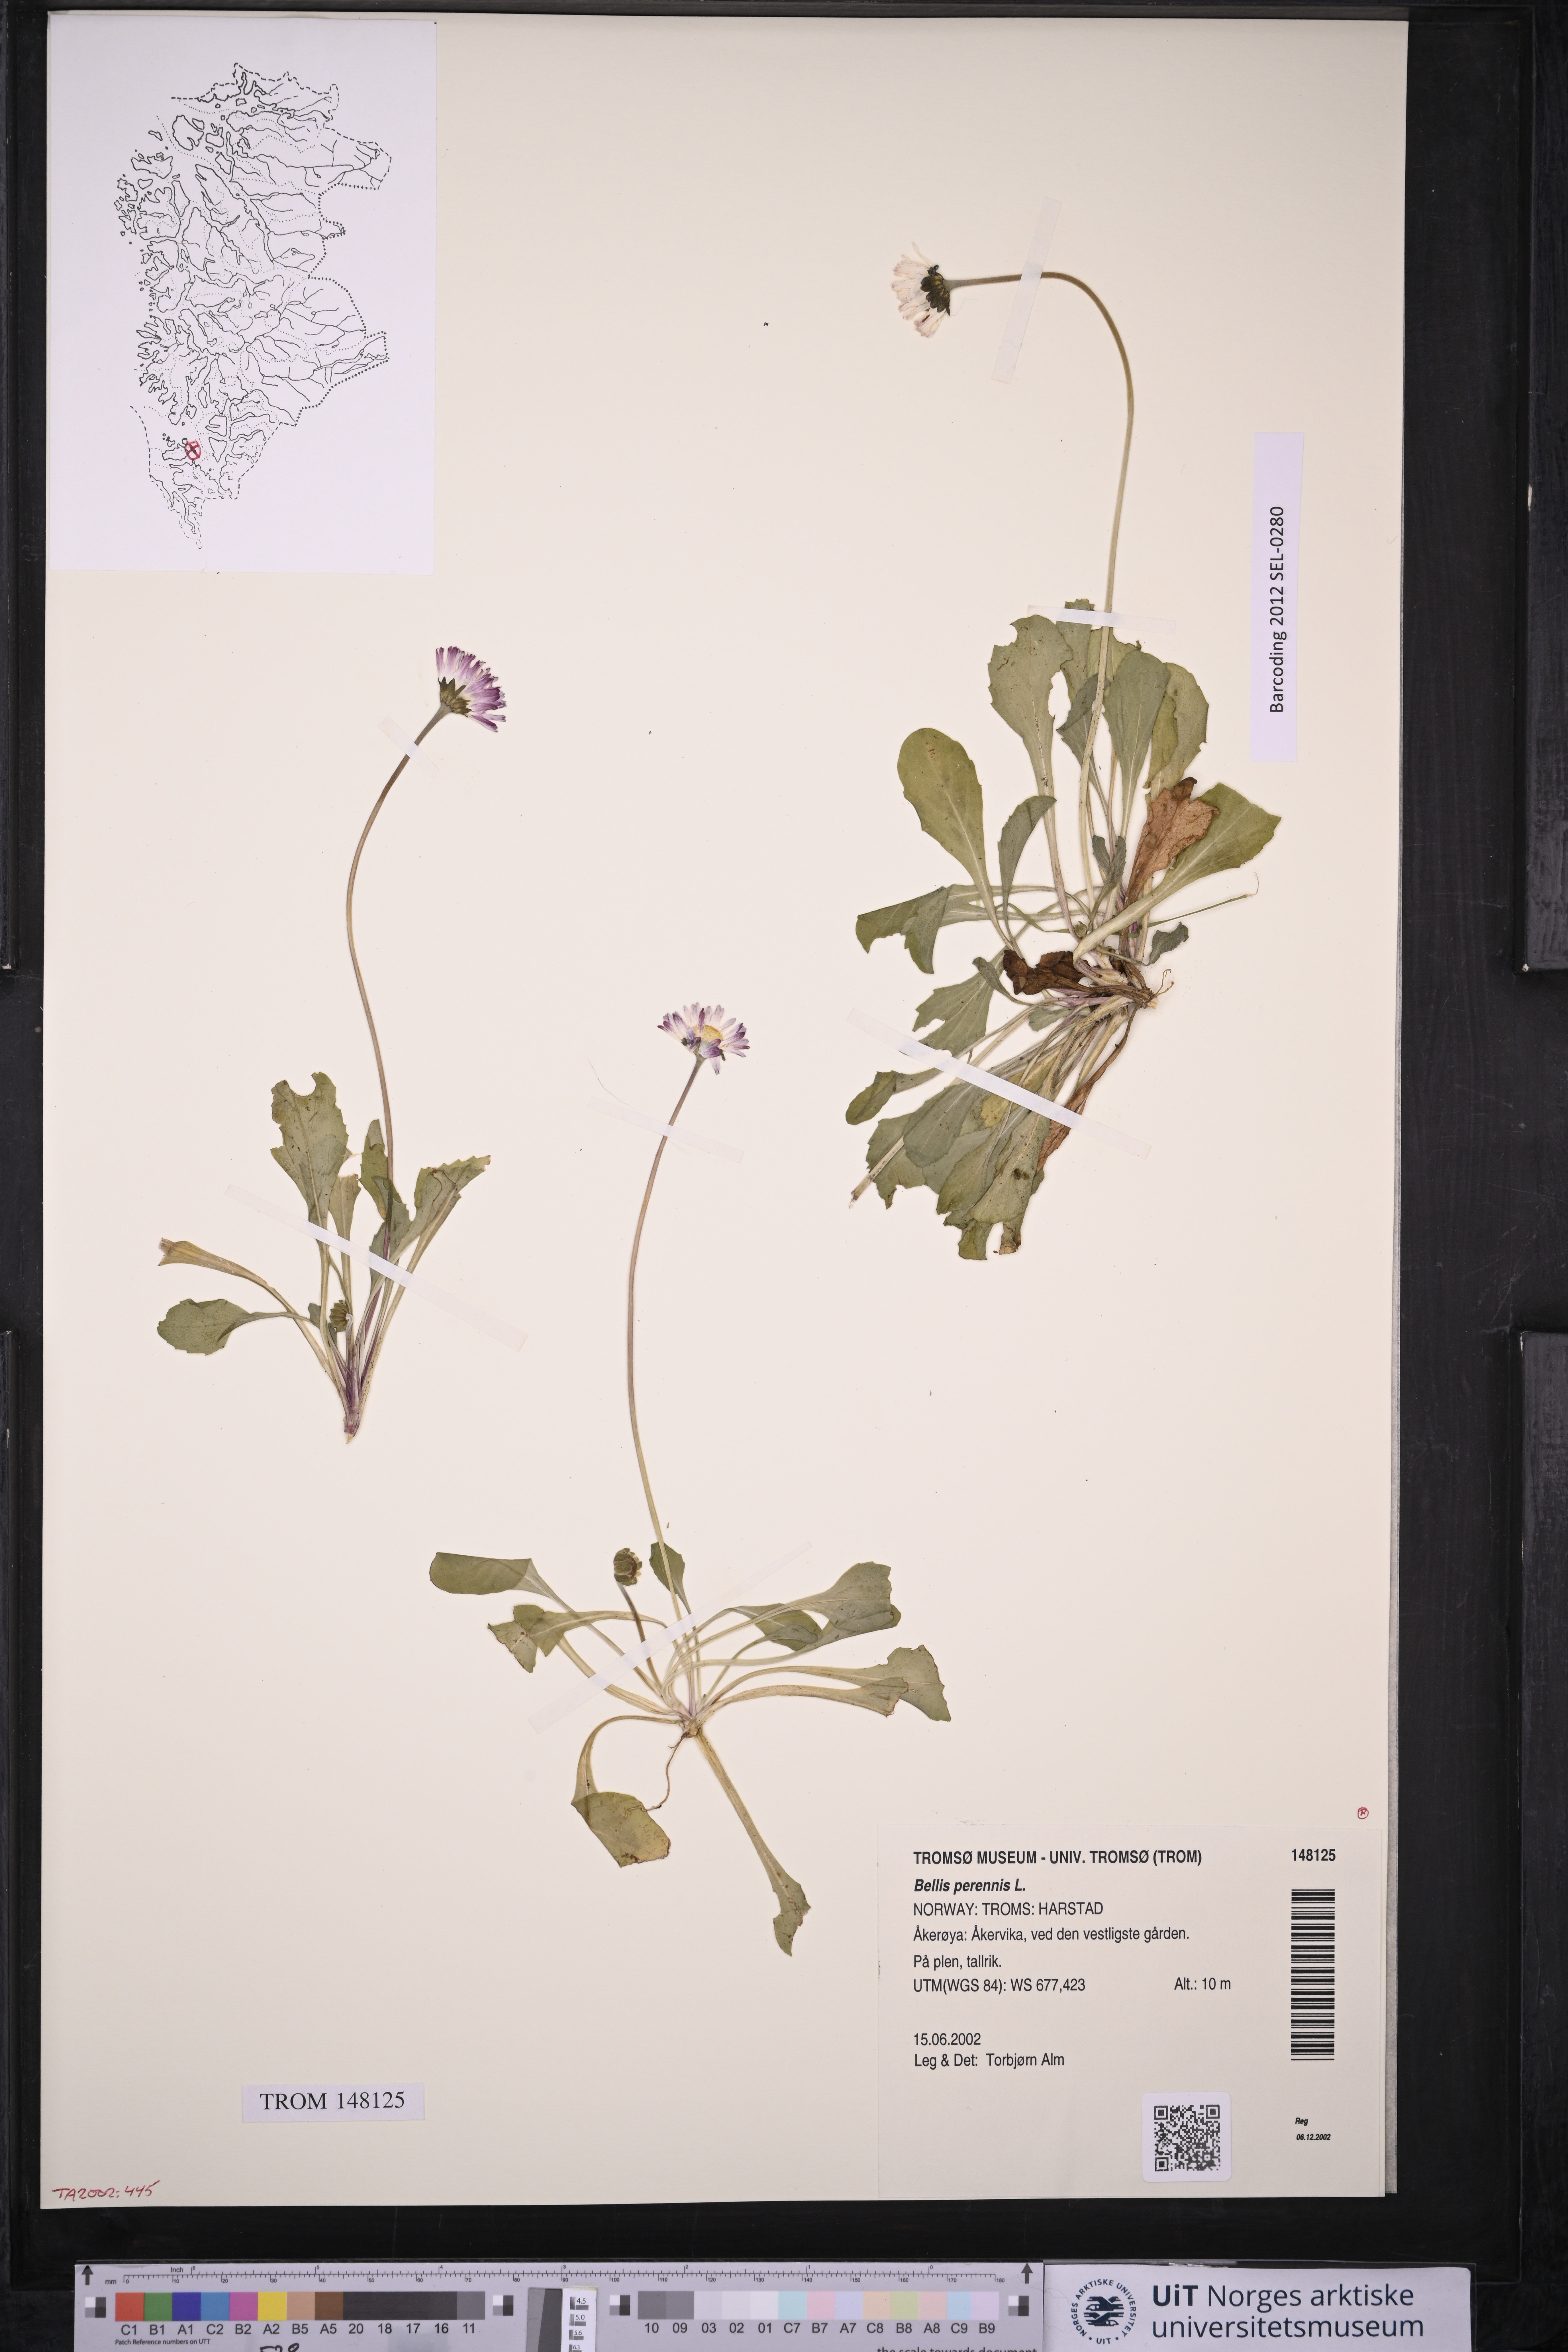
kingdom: Plantae
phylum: Tracheophyta
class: Magnoliopsida
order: Asterales
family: Asteraceae
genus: Bellis
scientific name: Bellis perennis
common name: Lawndaisy
